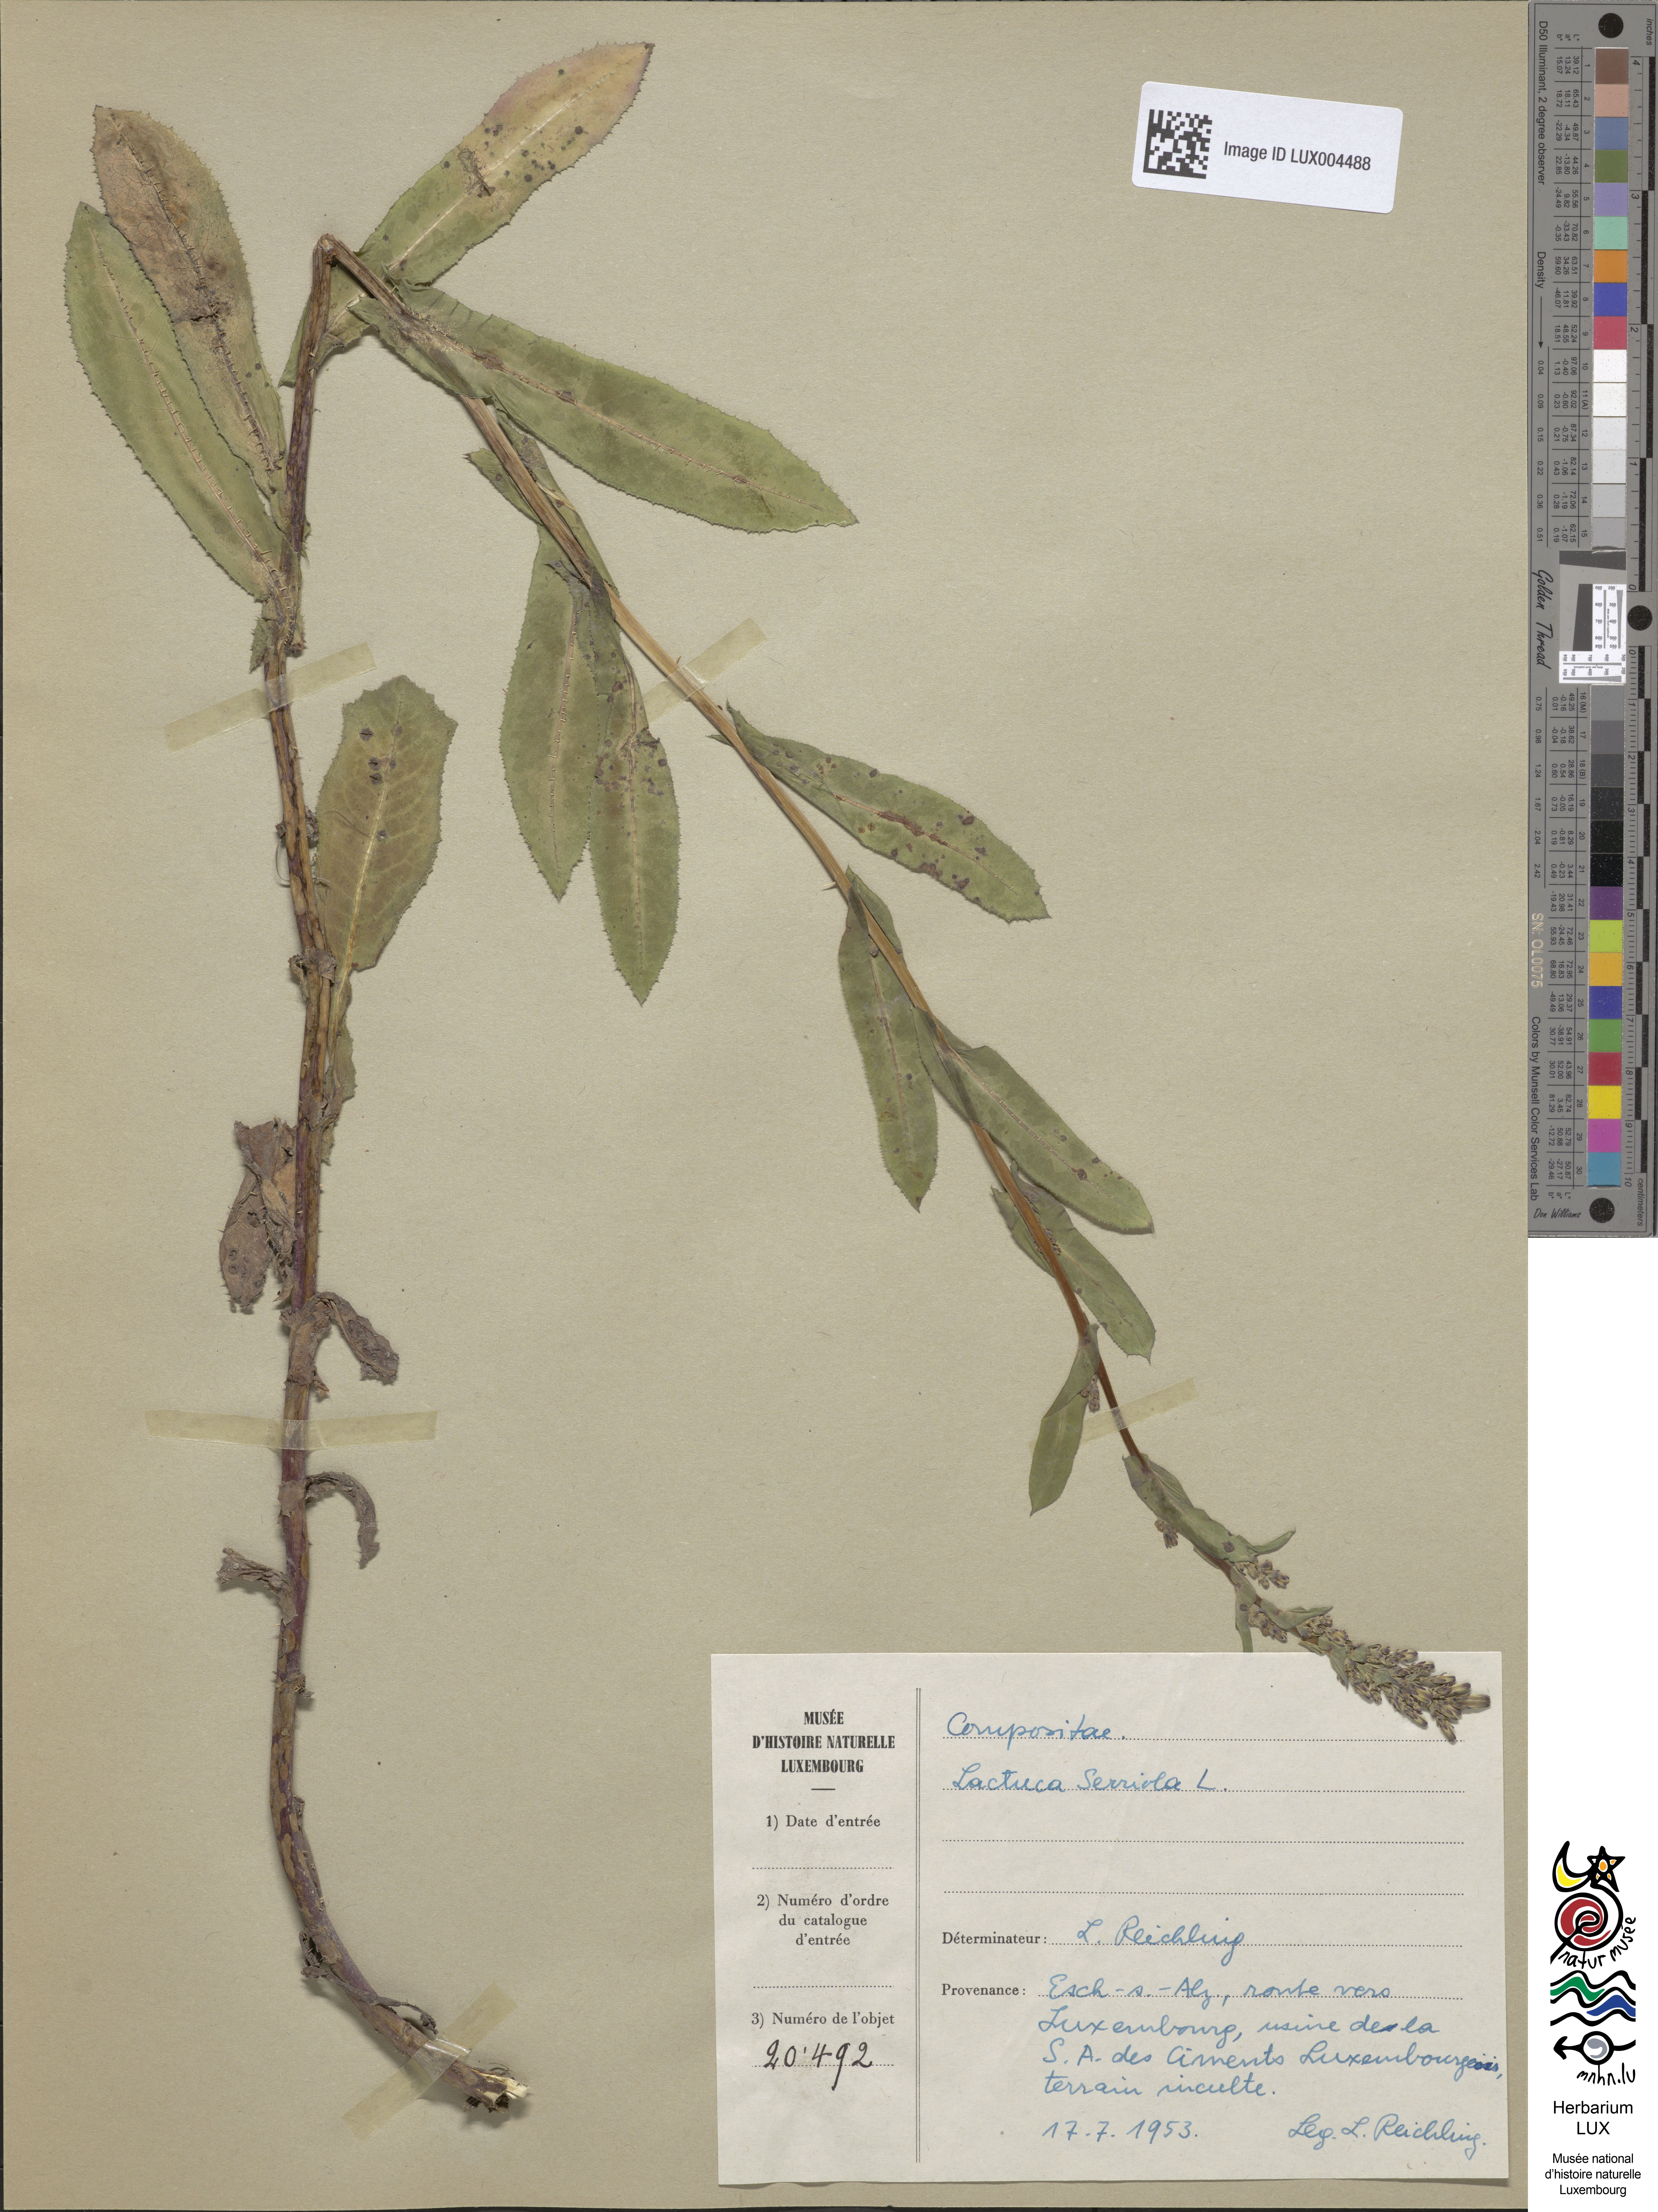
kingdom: Plantae
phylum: Tracheophyta
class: Magnoliopsida
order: Asterales
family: Asteraceae
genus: Lactuca
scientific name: Lactuca serriola
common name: Prickly lettuce
